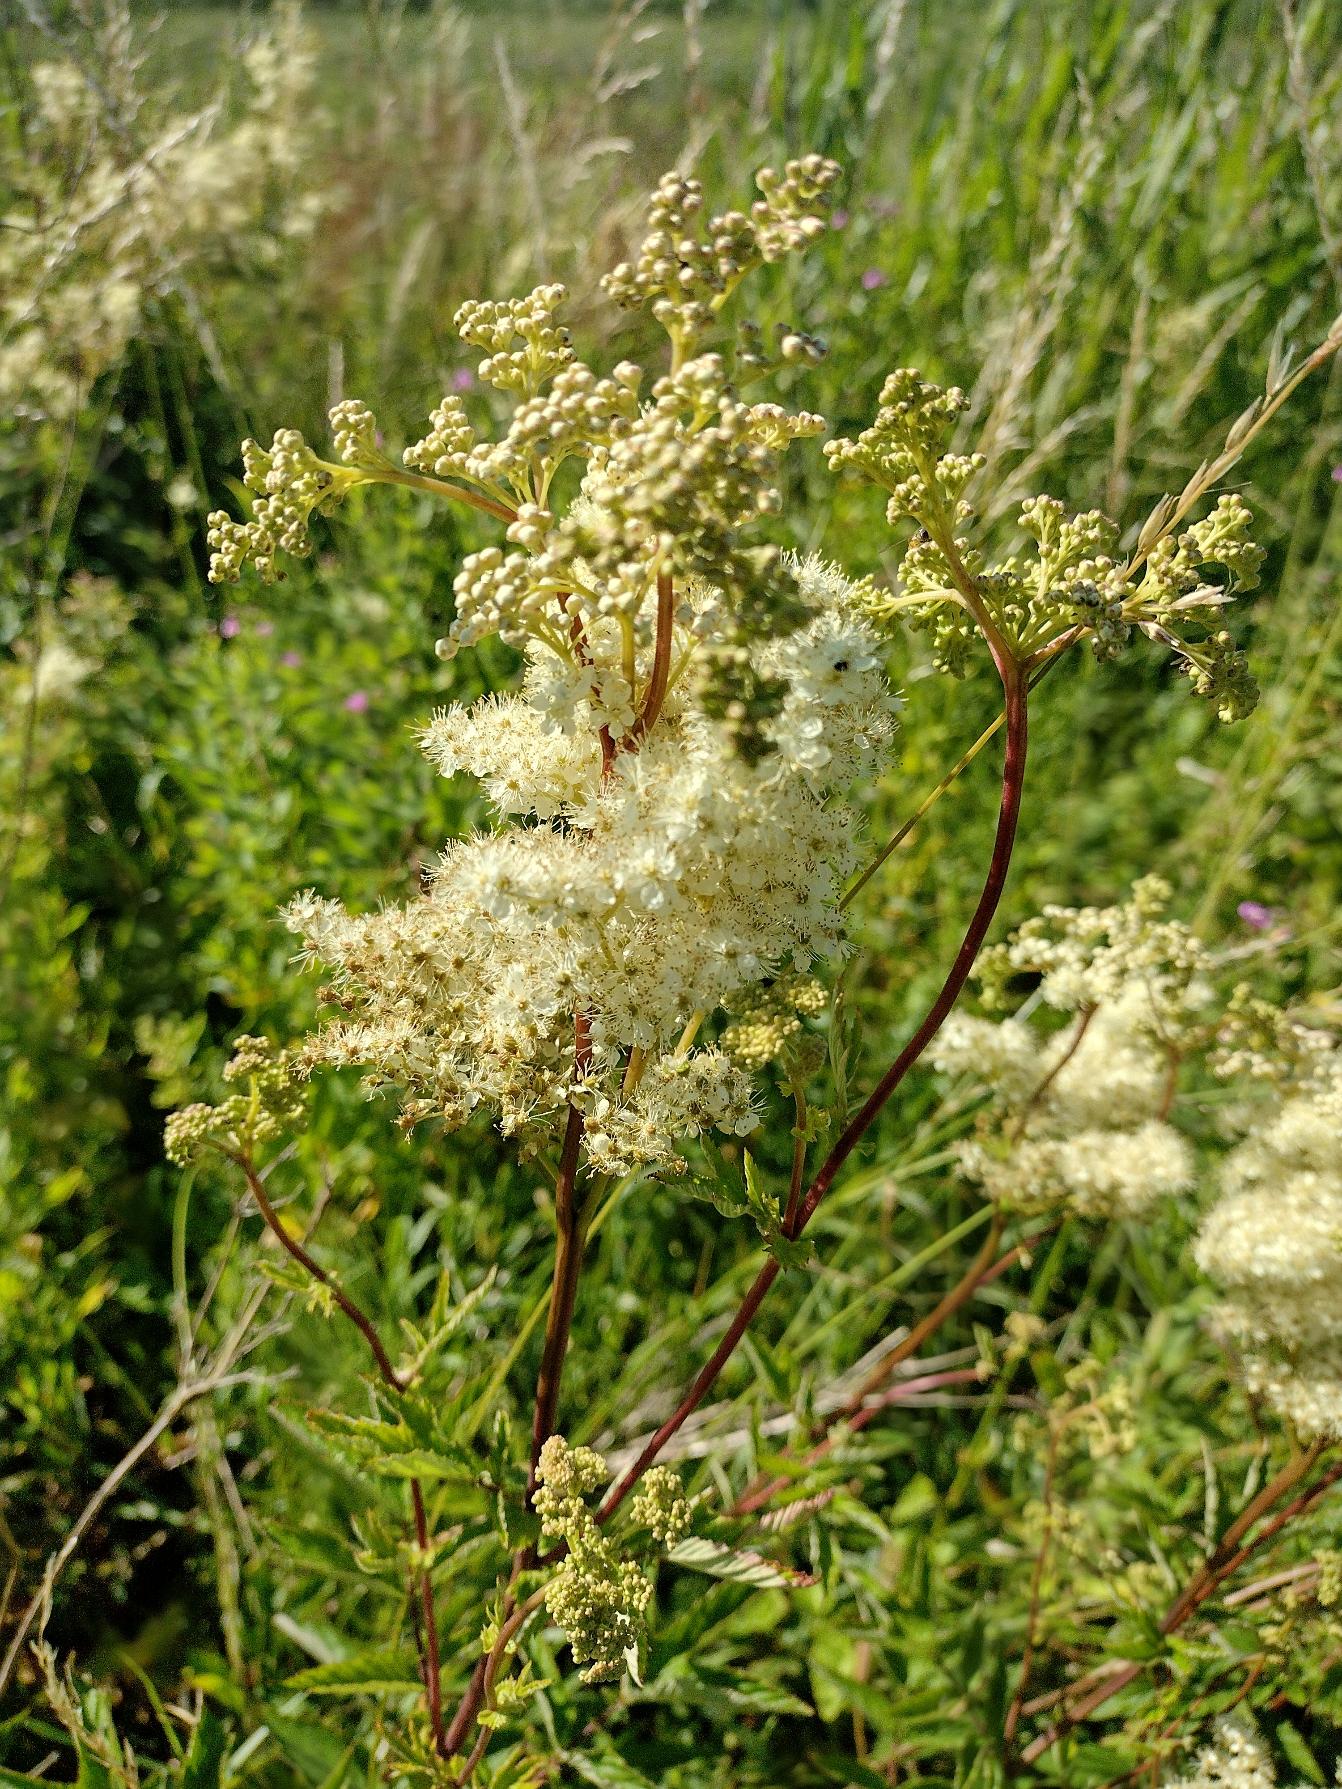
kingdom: Plantae
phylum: Tracheophyta
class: Magnoliopsida
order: Rosales
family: Rosaceae
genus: Filipendula
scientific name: Filipendula ulmaria
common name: Almindelig mjødurt
